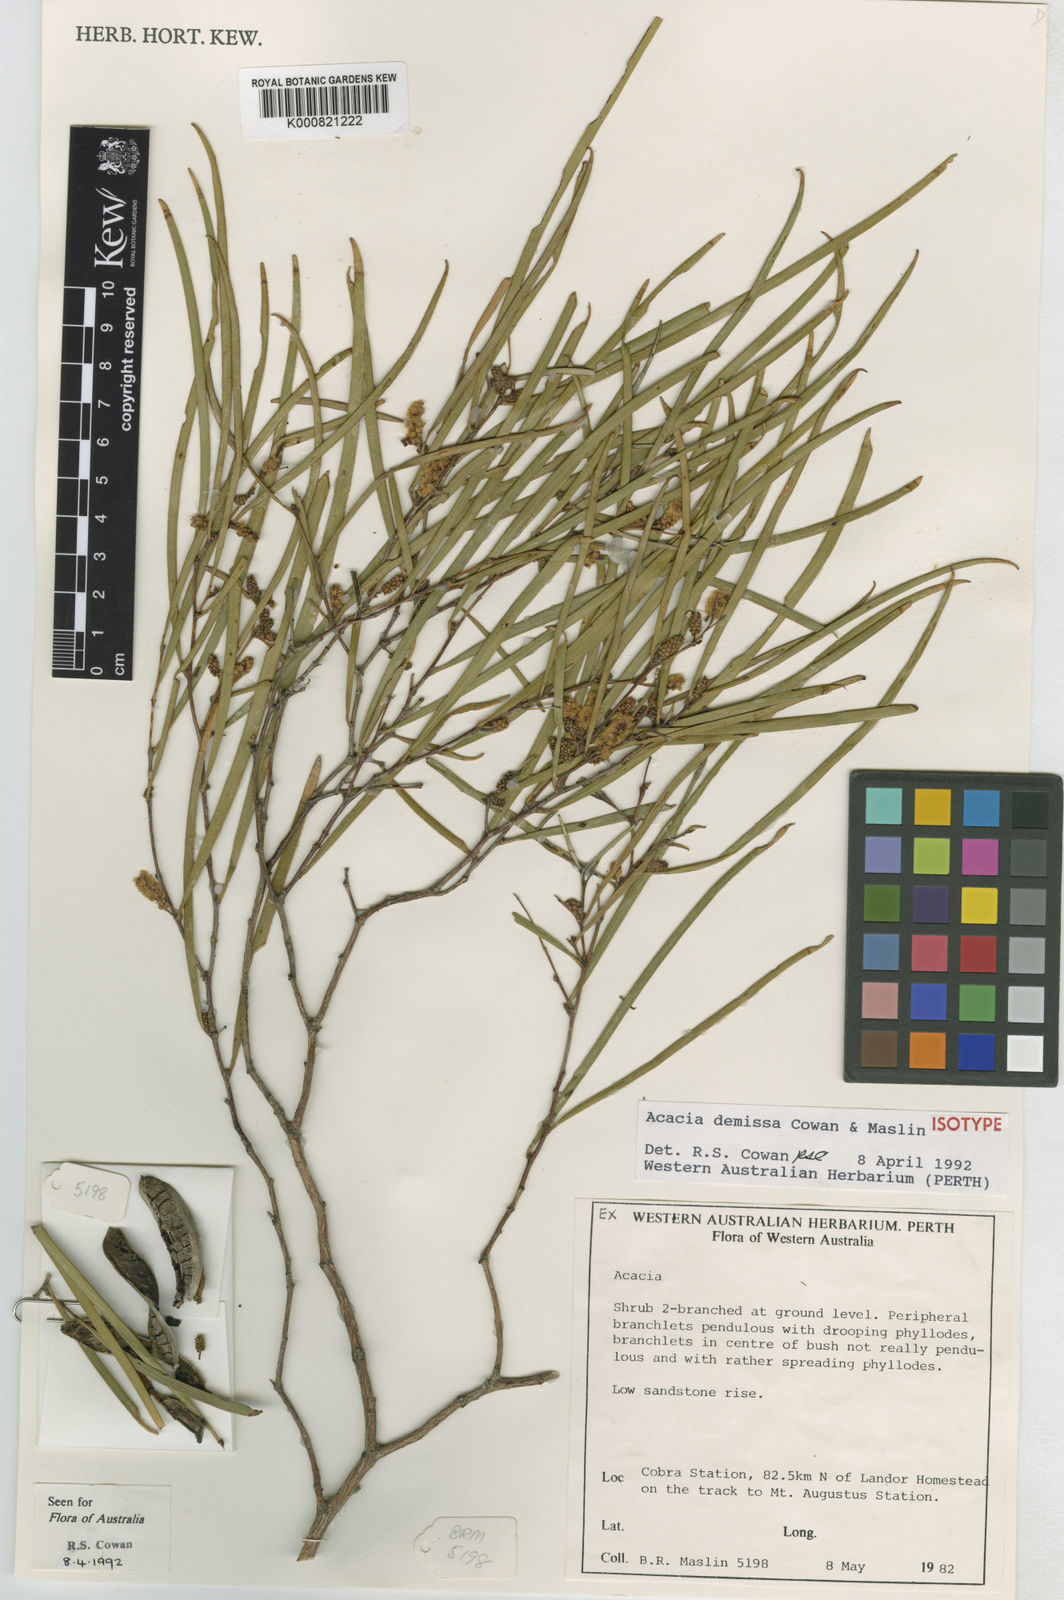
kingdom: Plantae
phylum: Tracheophyta
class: Magnoliopsida
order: Fabales
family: Fabaceae
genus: Acacia
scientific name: Acacia demissa
